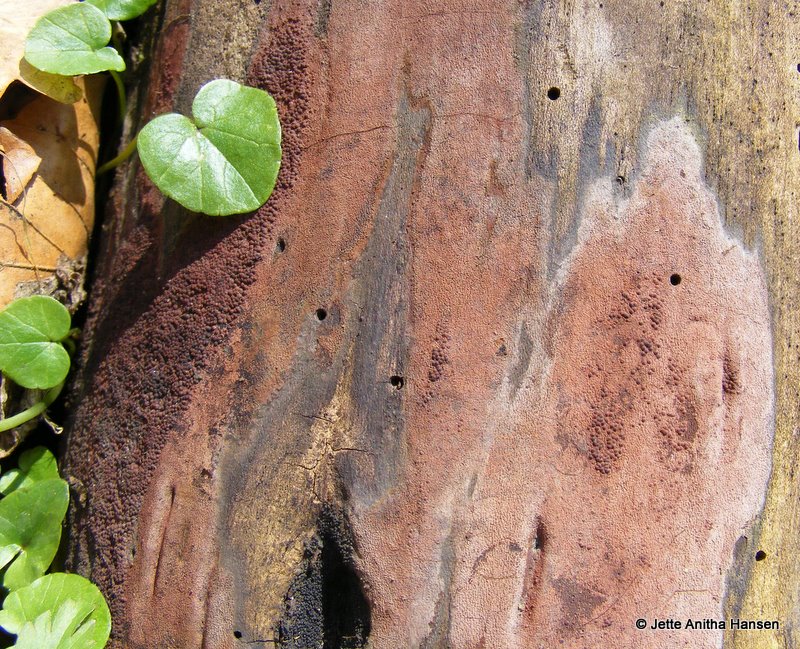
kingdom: Fungi
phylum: Ascomycota
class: Sordariomycetes
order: Xylariales
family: Hypoxylaceae
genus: Hypoxylon
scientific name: Hypoxylon macrocarpum
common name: skorpe-kulbær
